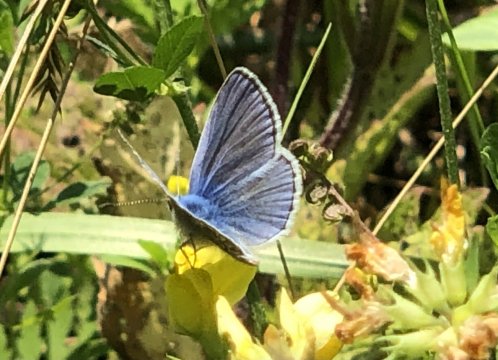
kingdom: Animalia
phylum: Arthropoda
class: Insecta
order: Lepidoptera
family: Lycaenidae
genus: Polyommatus
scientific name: Polyommatus icarus
